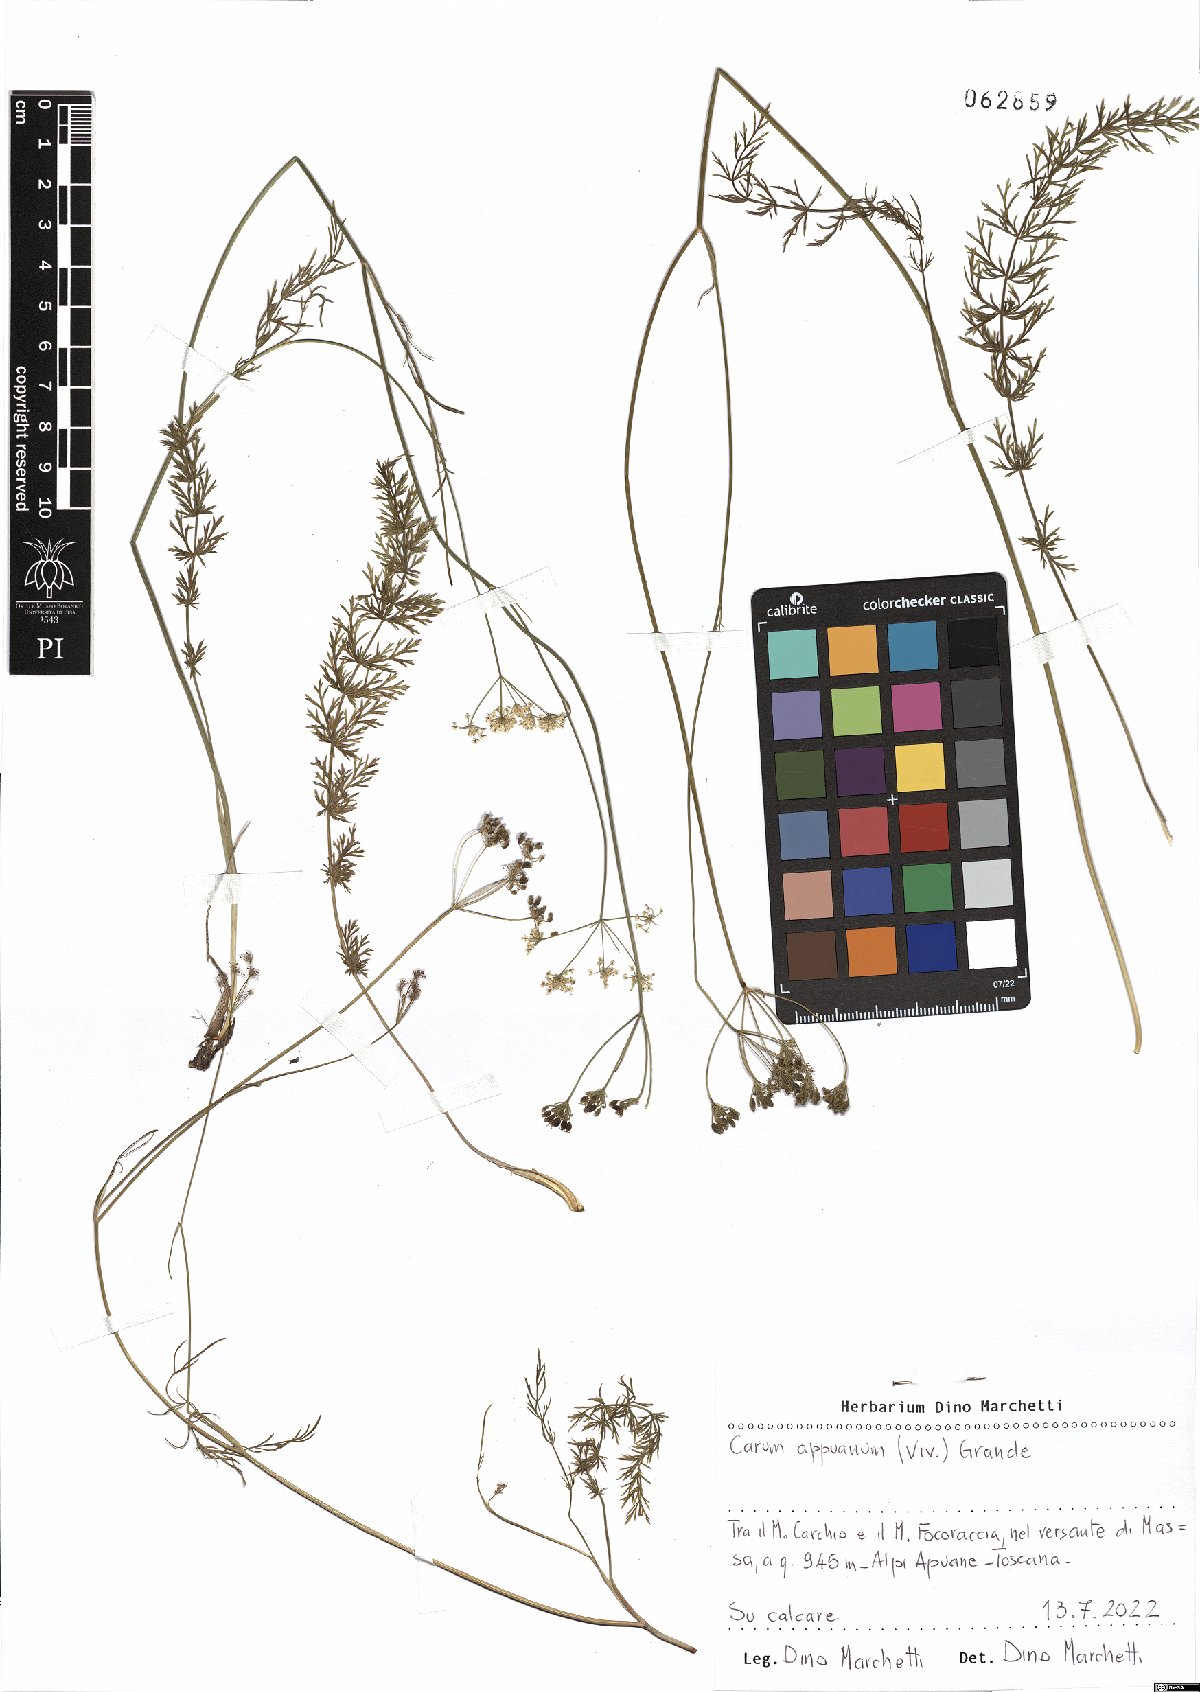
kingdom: Plantae
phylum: Tracheophyta
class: Magnoliopsida
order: Apiales
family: Apiaceae
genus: Carum
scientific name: Carum appuanum
